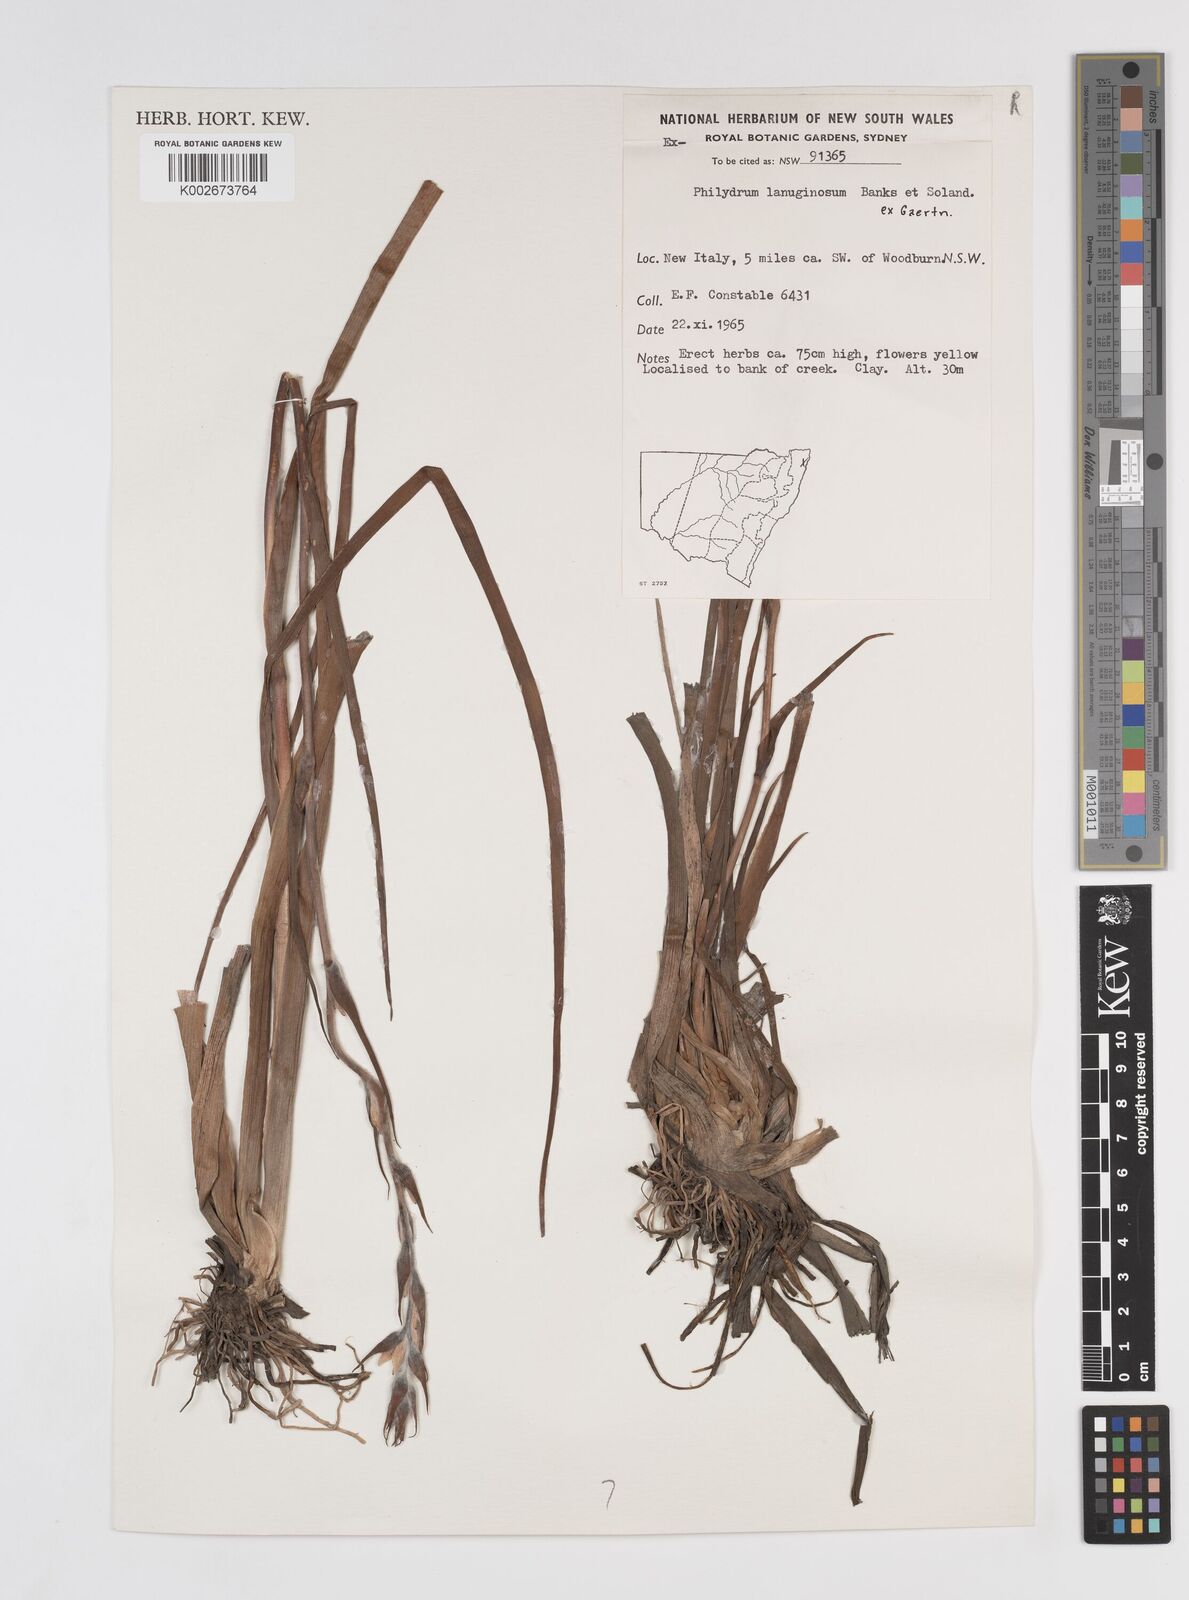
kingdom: Plantae
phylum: Tracheophyta
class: Liliopsida
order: Commelinales
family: Philydraceae
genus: Philydrum
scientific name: Philydrum lanuginosum
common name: Woolly frog's mouth
